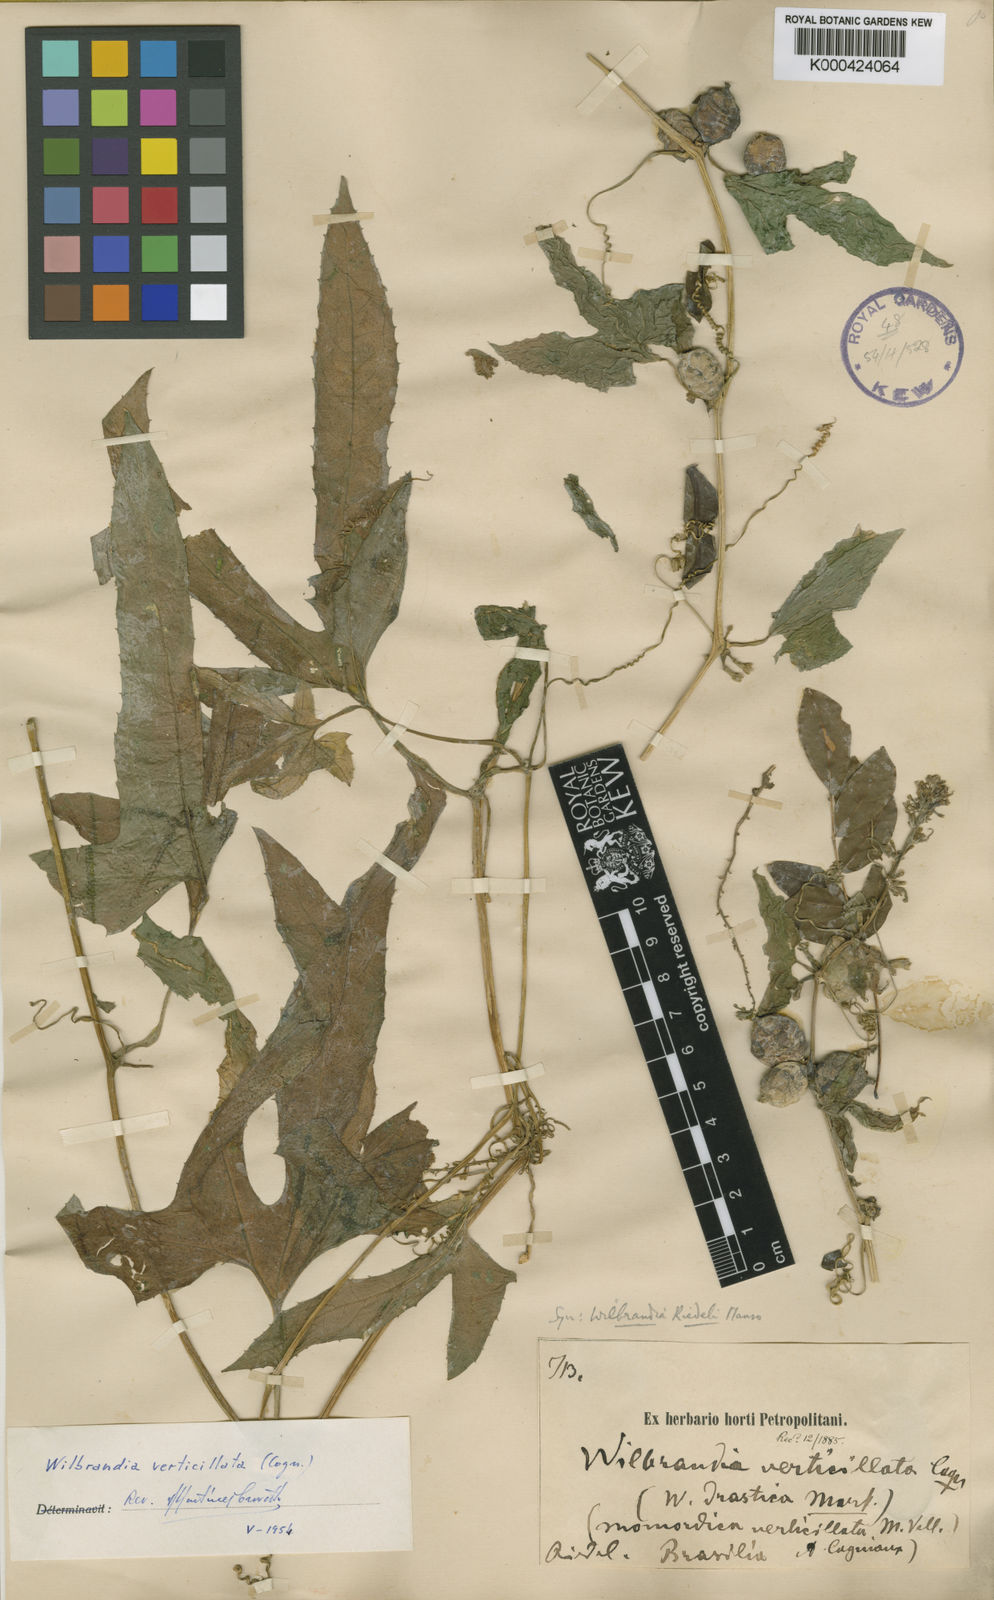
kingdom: Plantae
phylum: Tracheophyta
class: Magnoliopsida
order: Cucurbitales
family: Cucurbitaceae
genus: Wilbrandia
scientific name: Wilbrandia verticillata
